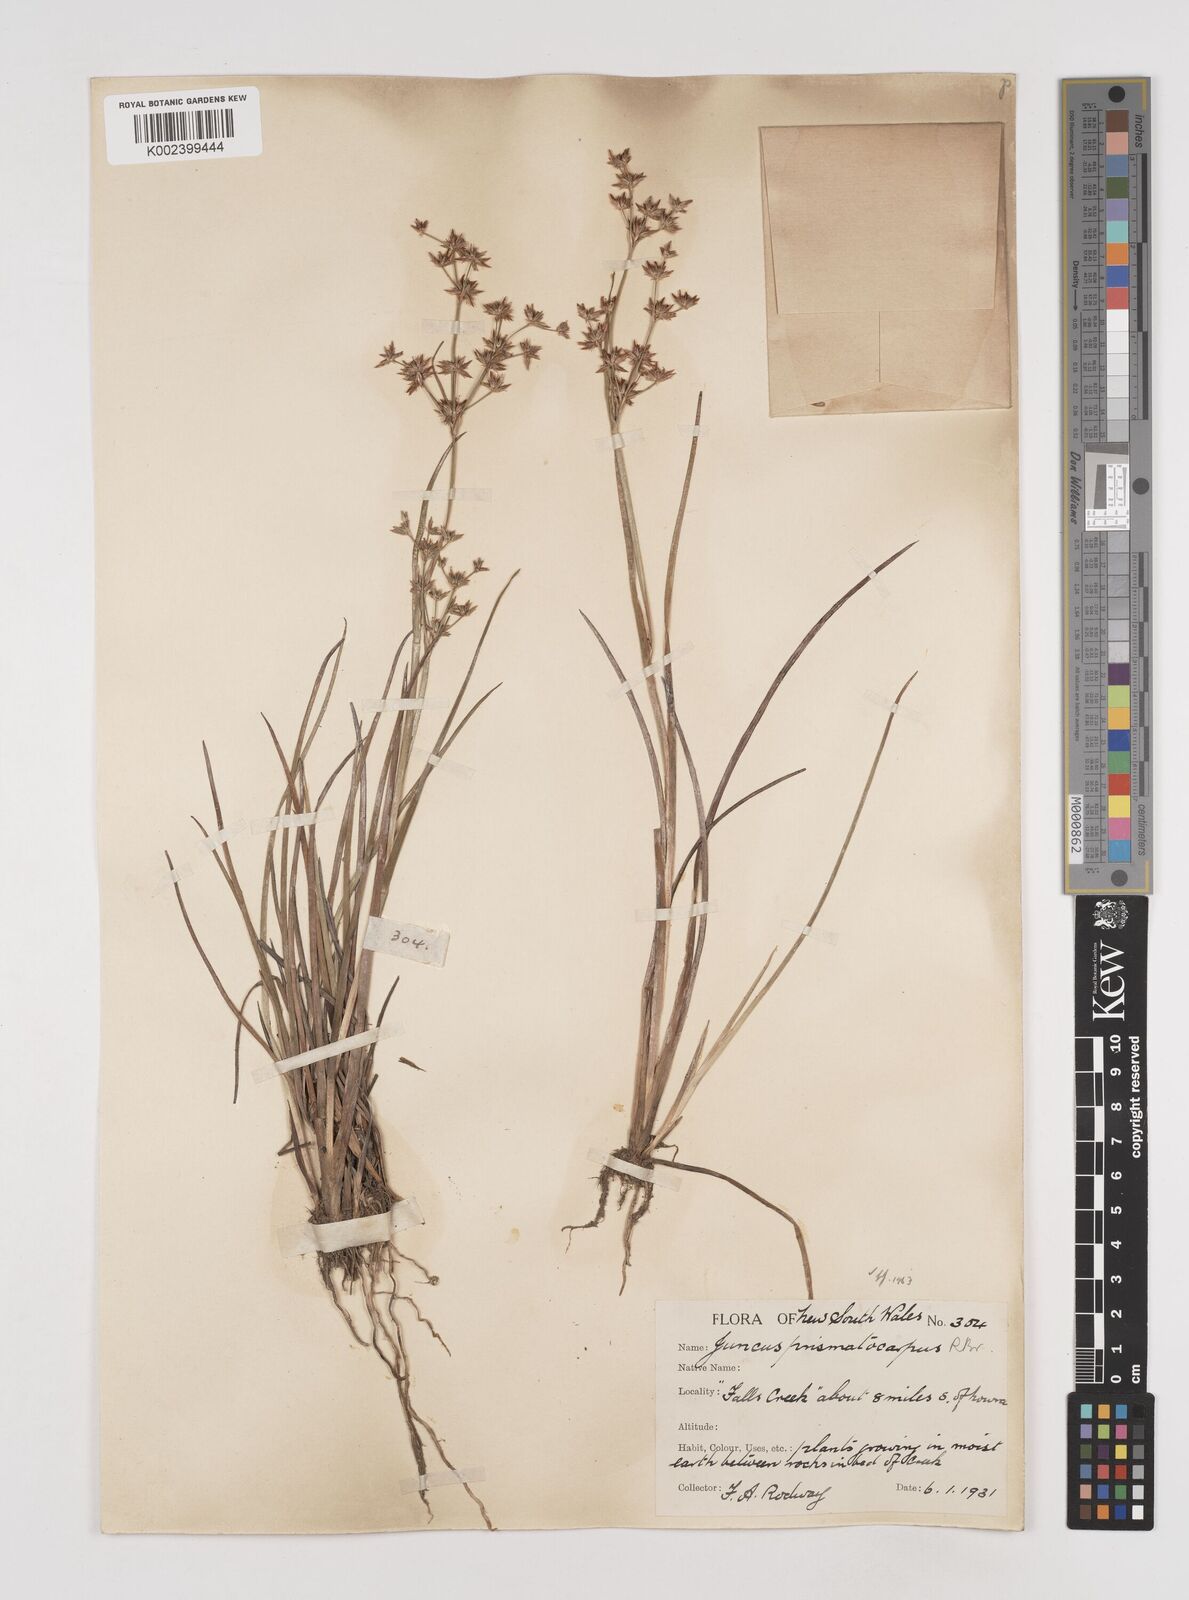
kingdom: Plantae
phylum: Tracheophyta
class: Liliopsida
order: Poales
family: Juncaceae
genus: Juncus
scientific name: Juncus prismatocarpus
